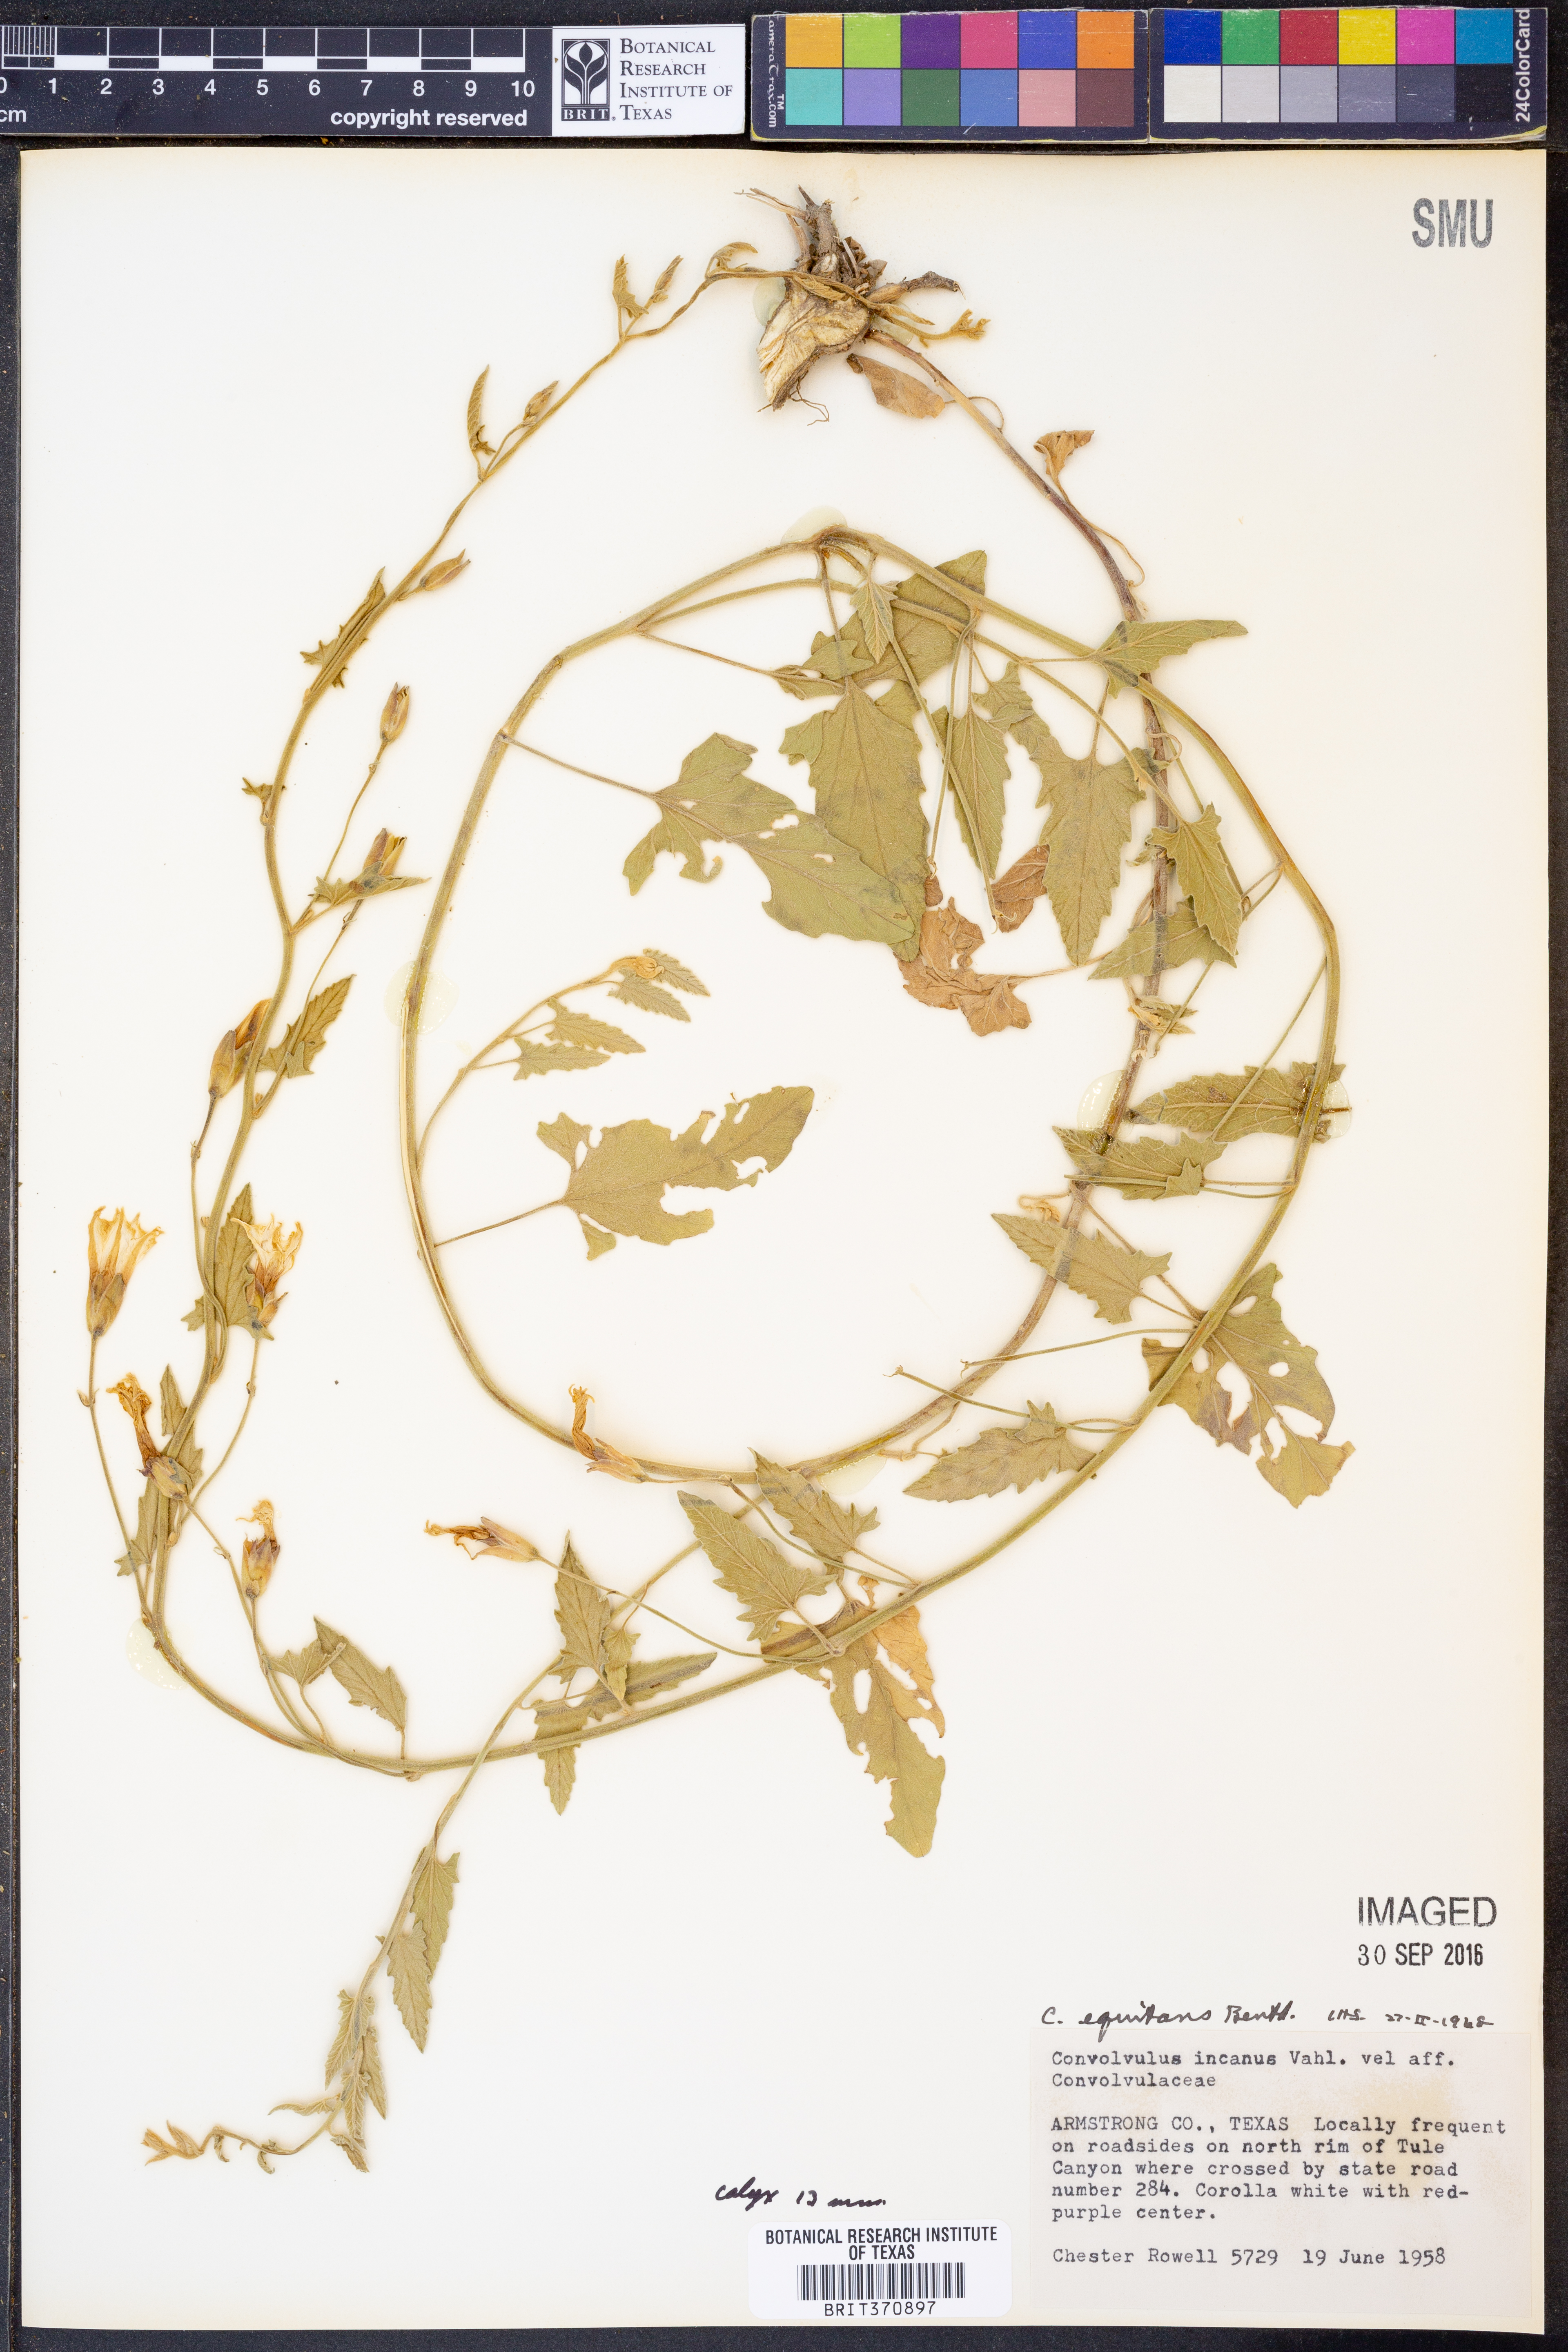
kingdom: Plantae
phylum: Tracheophyta
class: Magnoliopsida
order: Solanales
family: Convolvulaceae
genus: Convolvulus
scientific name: Convolvulus equitans
